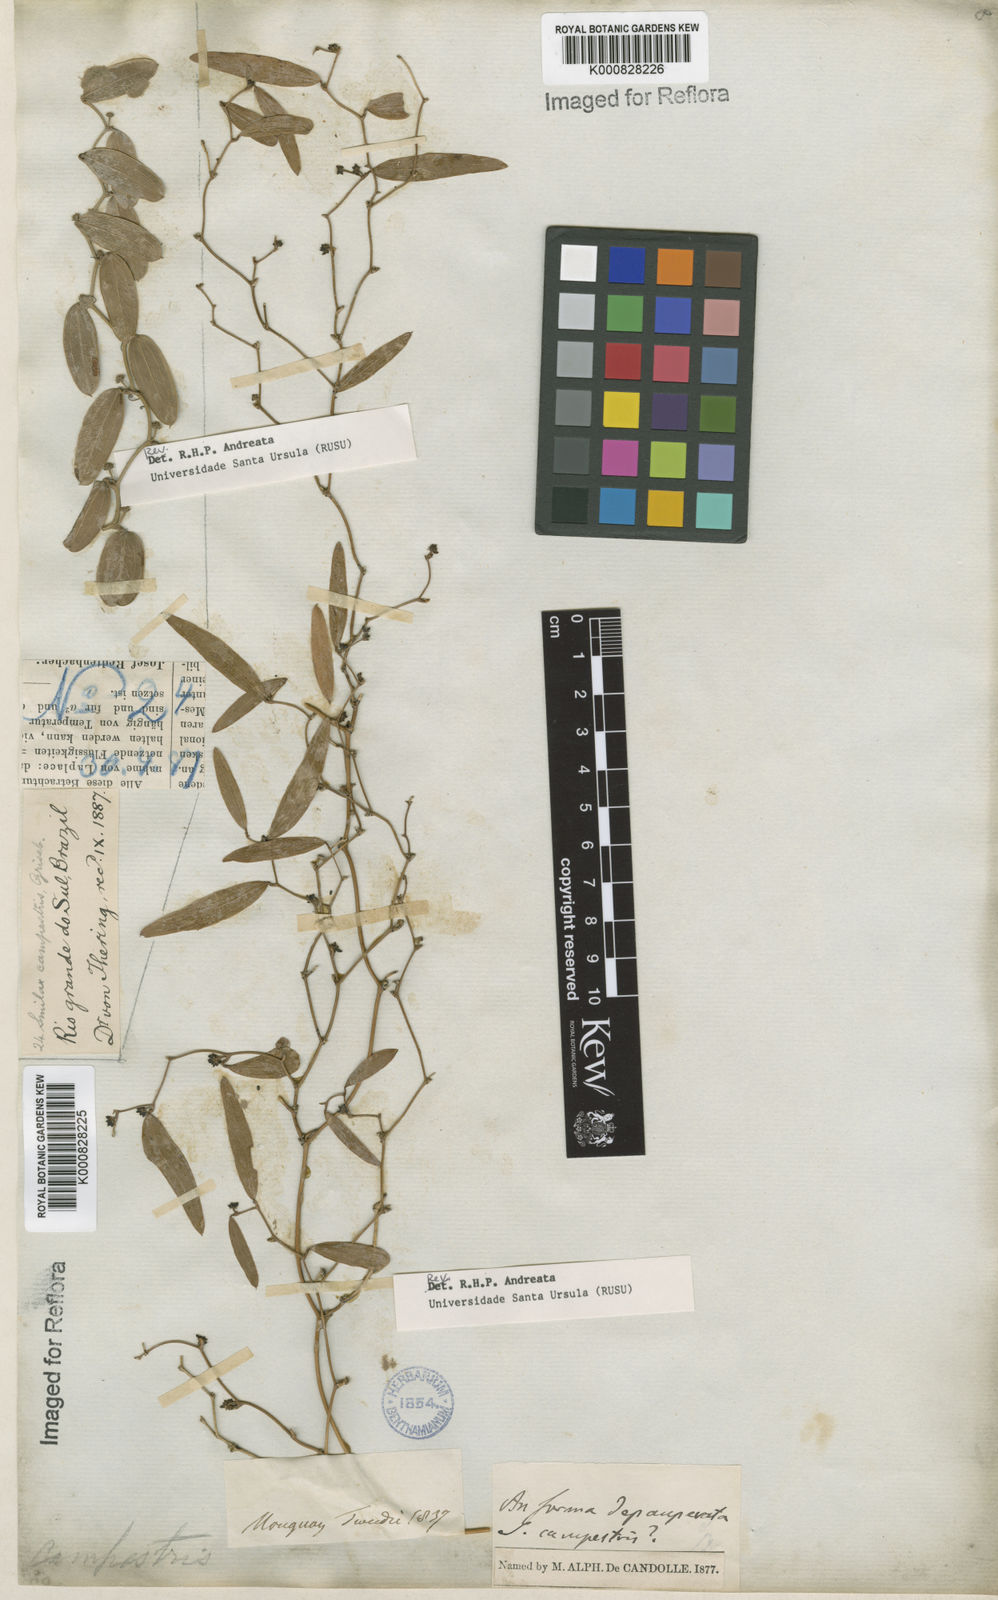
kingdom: Plantae
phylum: Tracheophyta
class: Liliopsida
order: Liliales
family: Smilacaceae
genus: Smilax
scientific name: Smilax campestris
